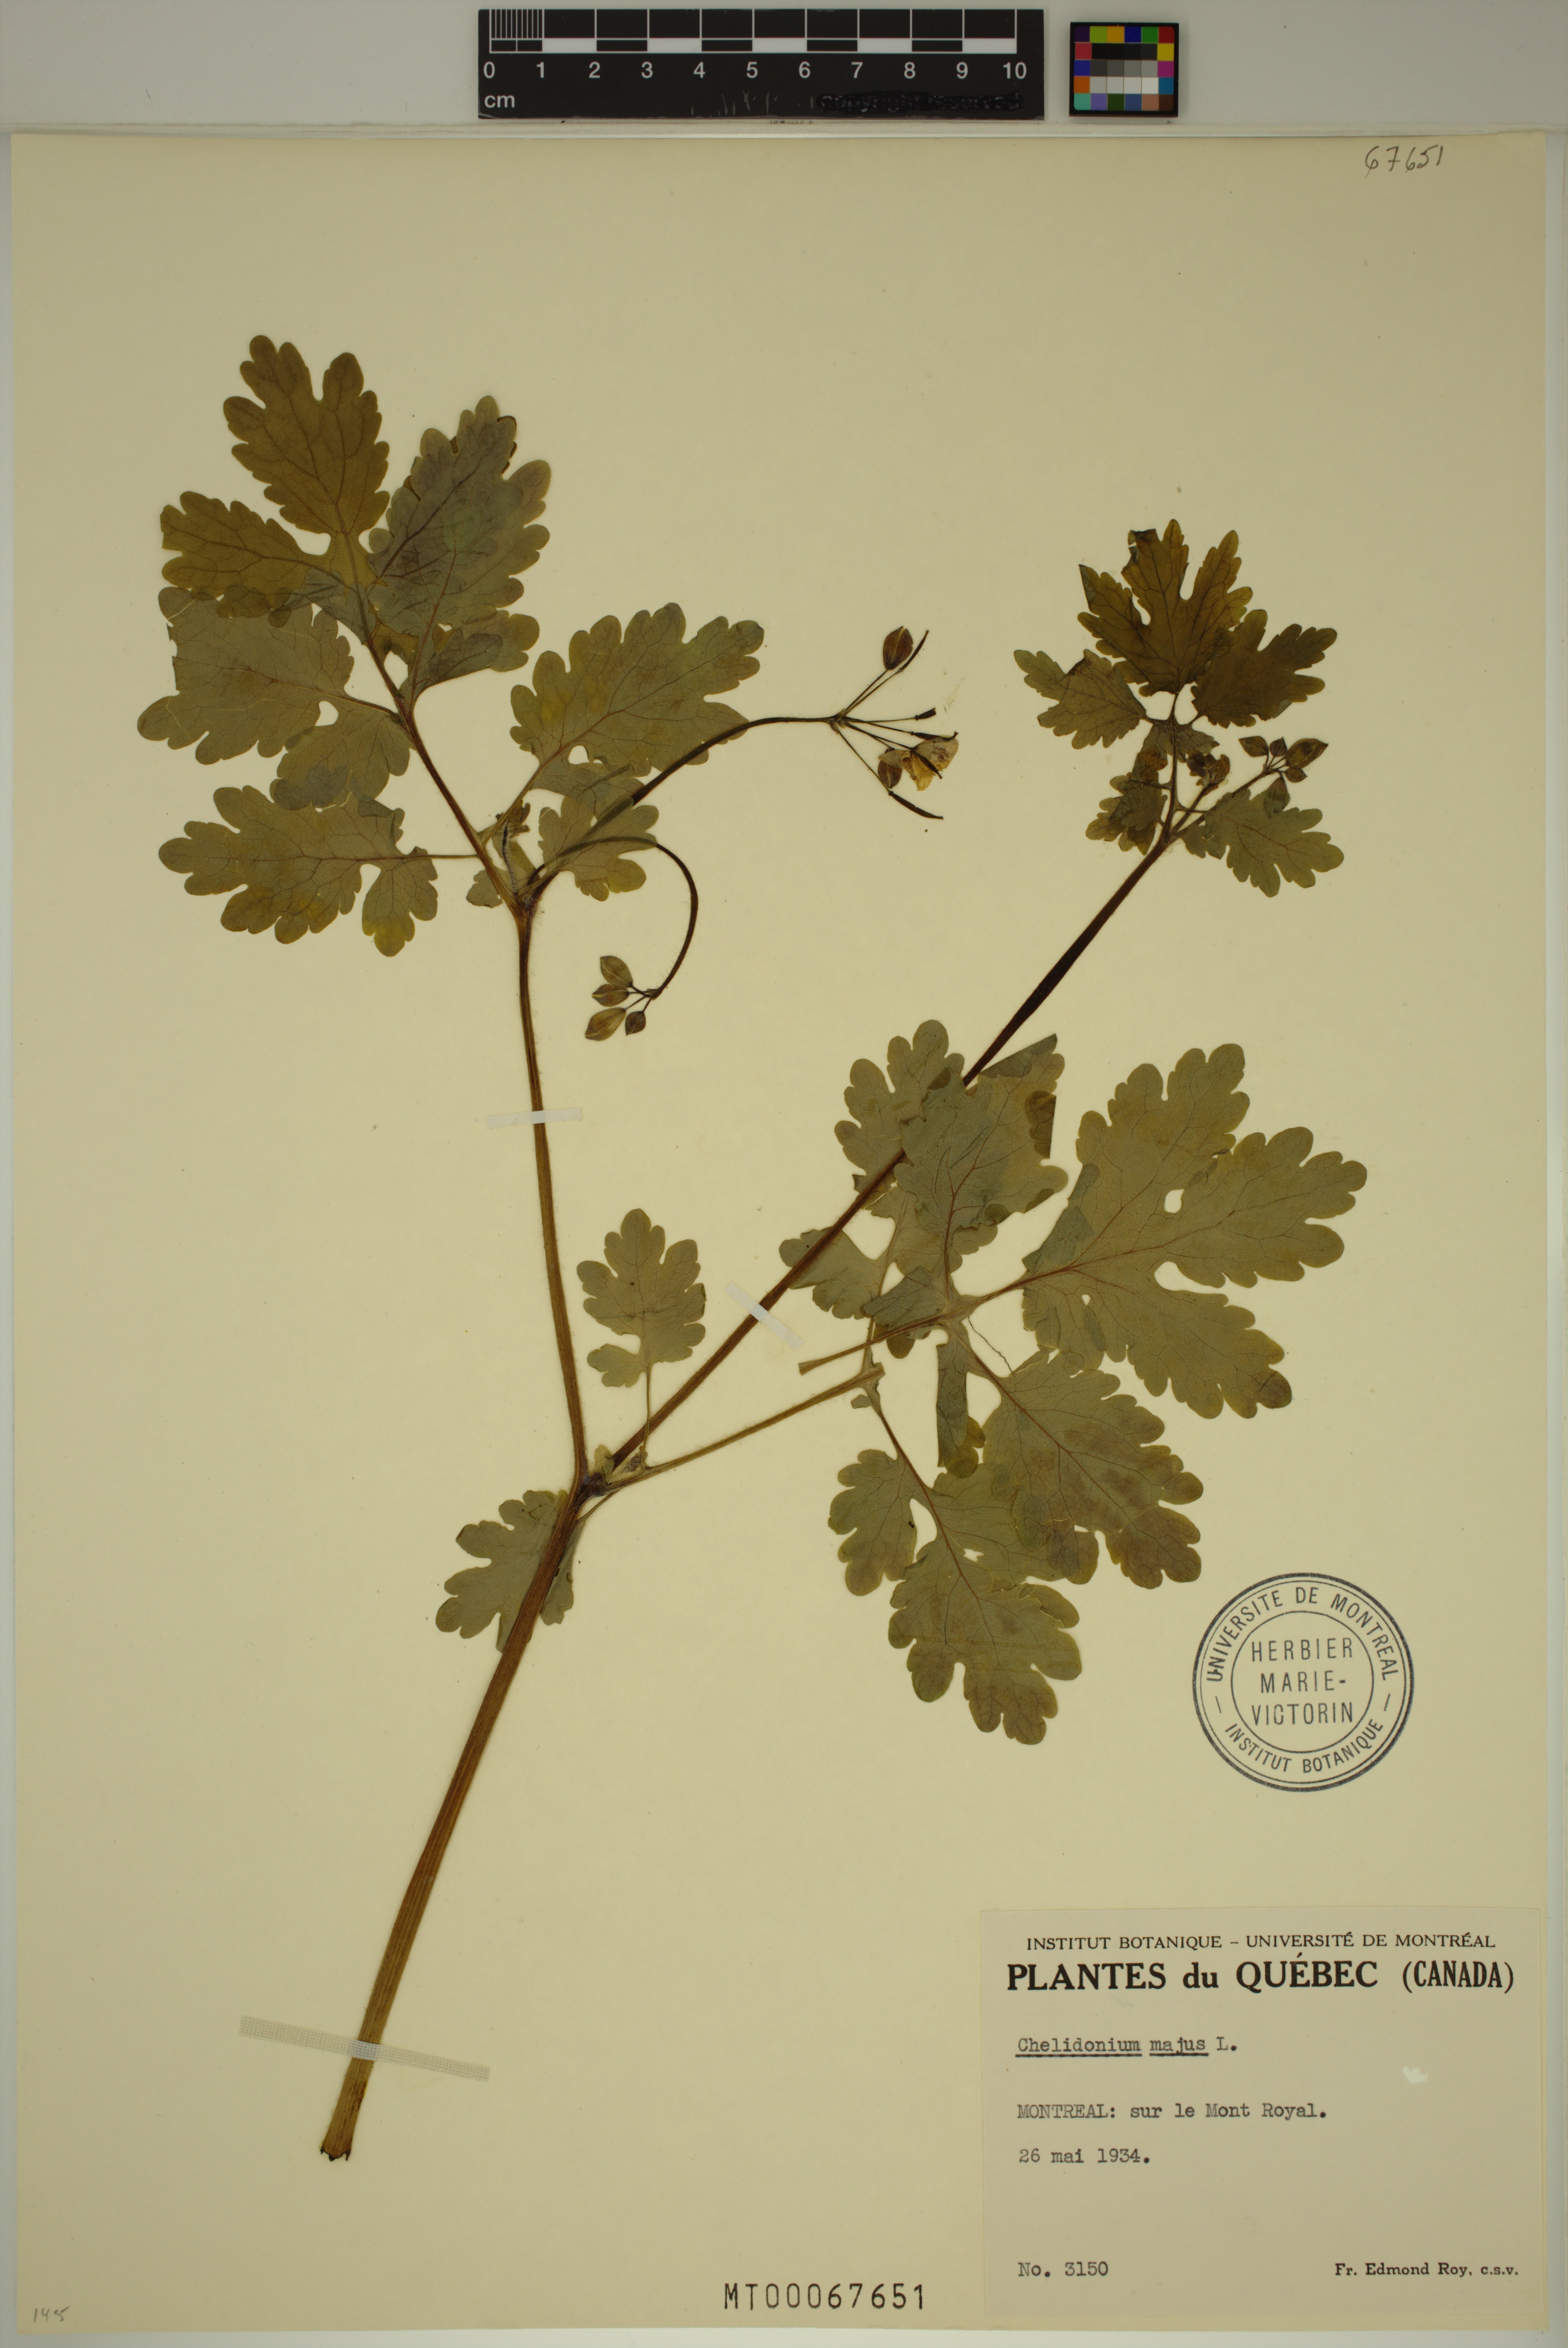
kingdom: Plantae
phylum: Tracheophyta
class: Magnoliopsida
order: Ranunculales
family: Papaveraceae
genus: Chelidonium
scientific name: Chelidonium majus
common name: Greater celandine
